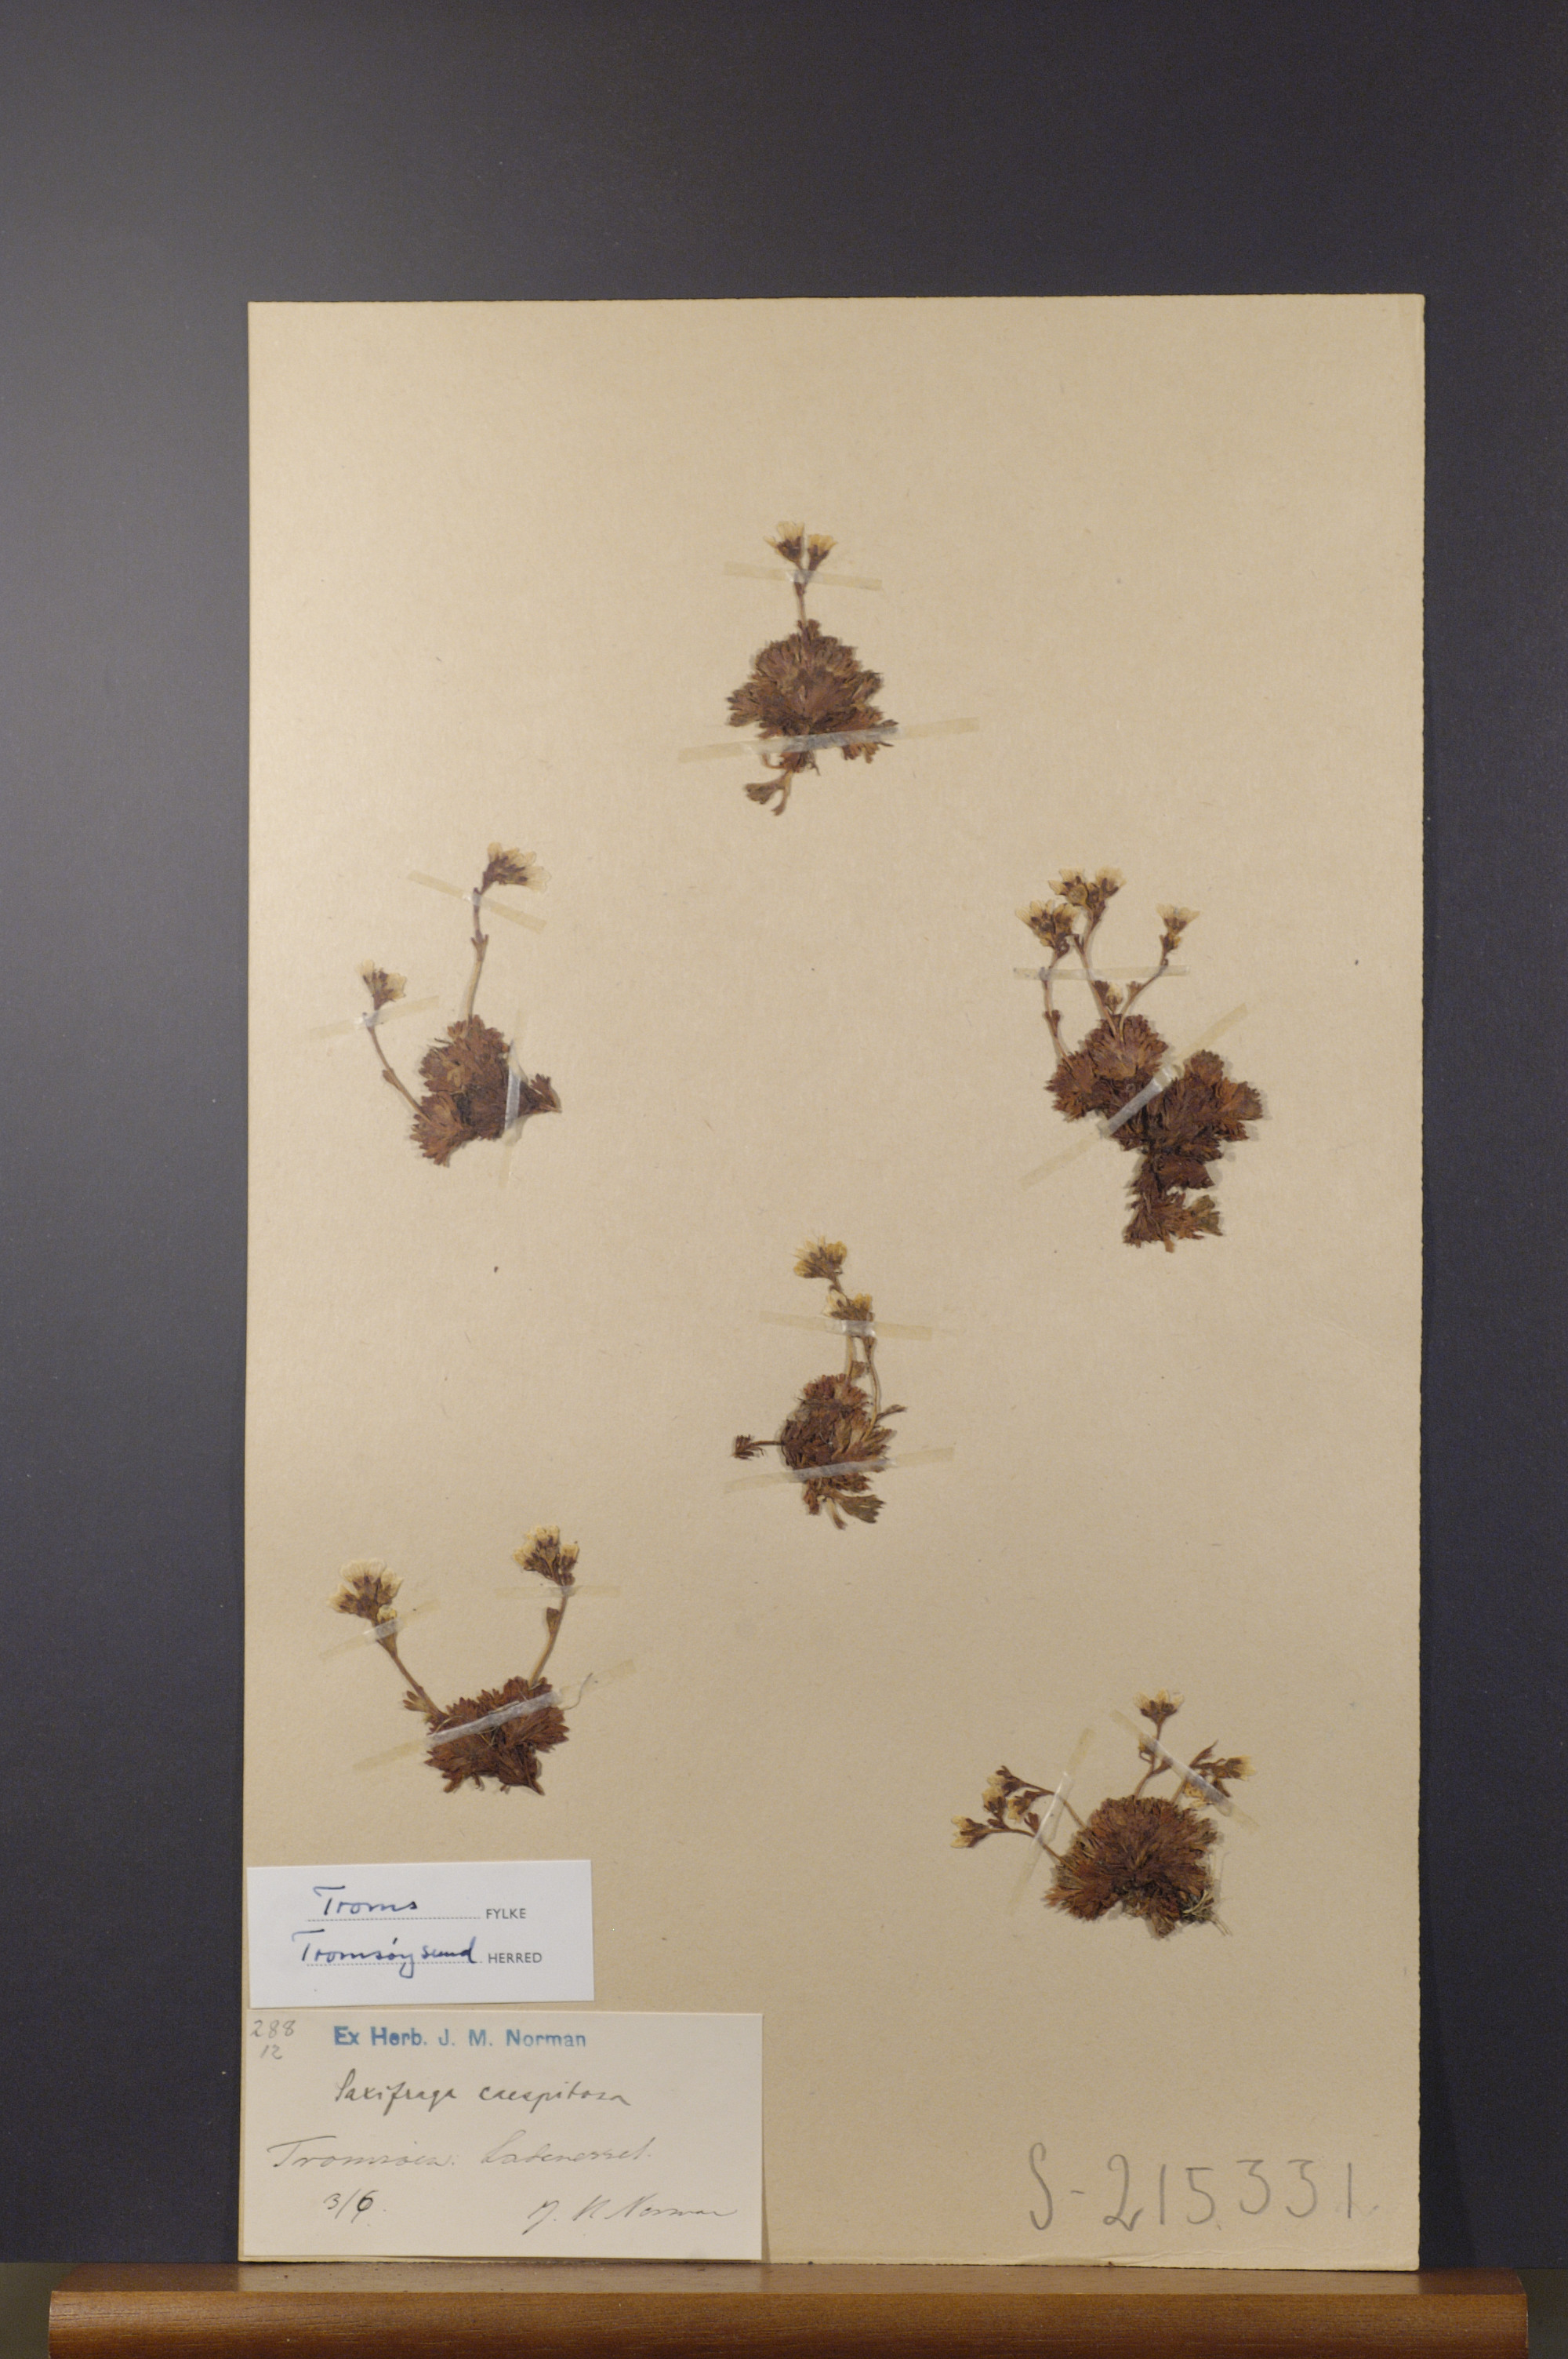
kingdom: Plantae
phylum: Tracheophyta
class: Magnoliopsida
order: Saxifragales
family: Saxifragaceae
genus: Saxifraga
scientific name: Saxifraga cespitosa
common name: Tufted saxifrage
